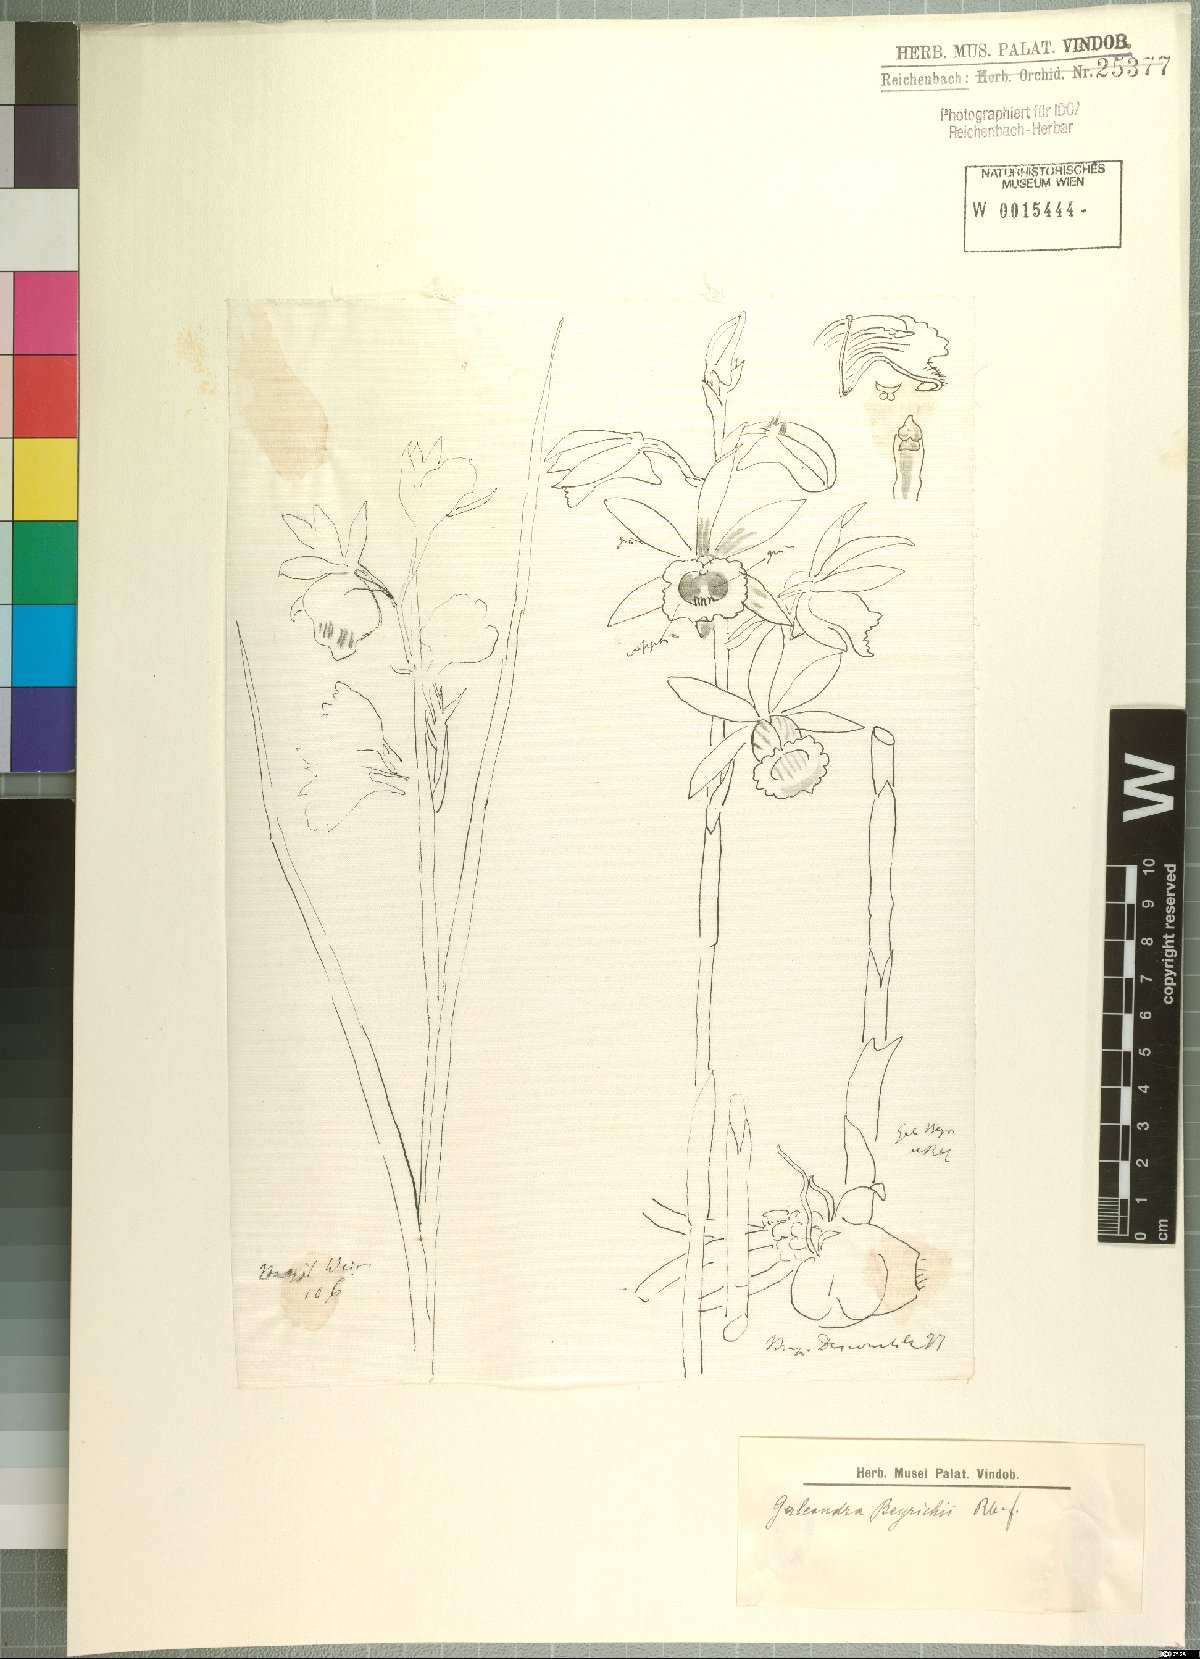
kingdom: Plantae
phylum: Tracheophyta
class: Liliopsida
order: Asparagales
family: Orchidaceae
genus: Galeandra
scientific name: Galeandra beyrichii
